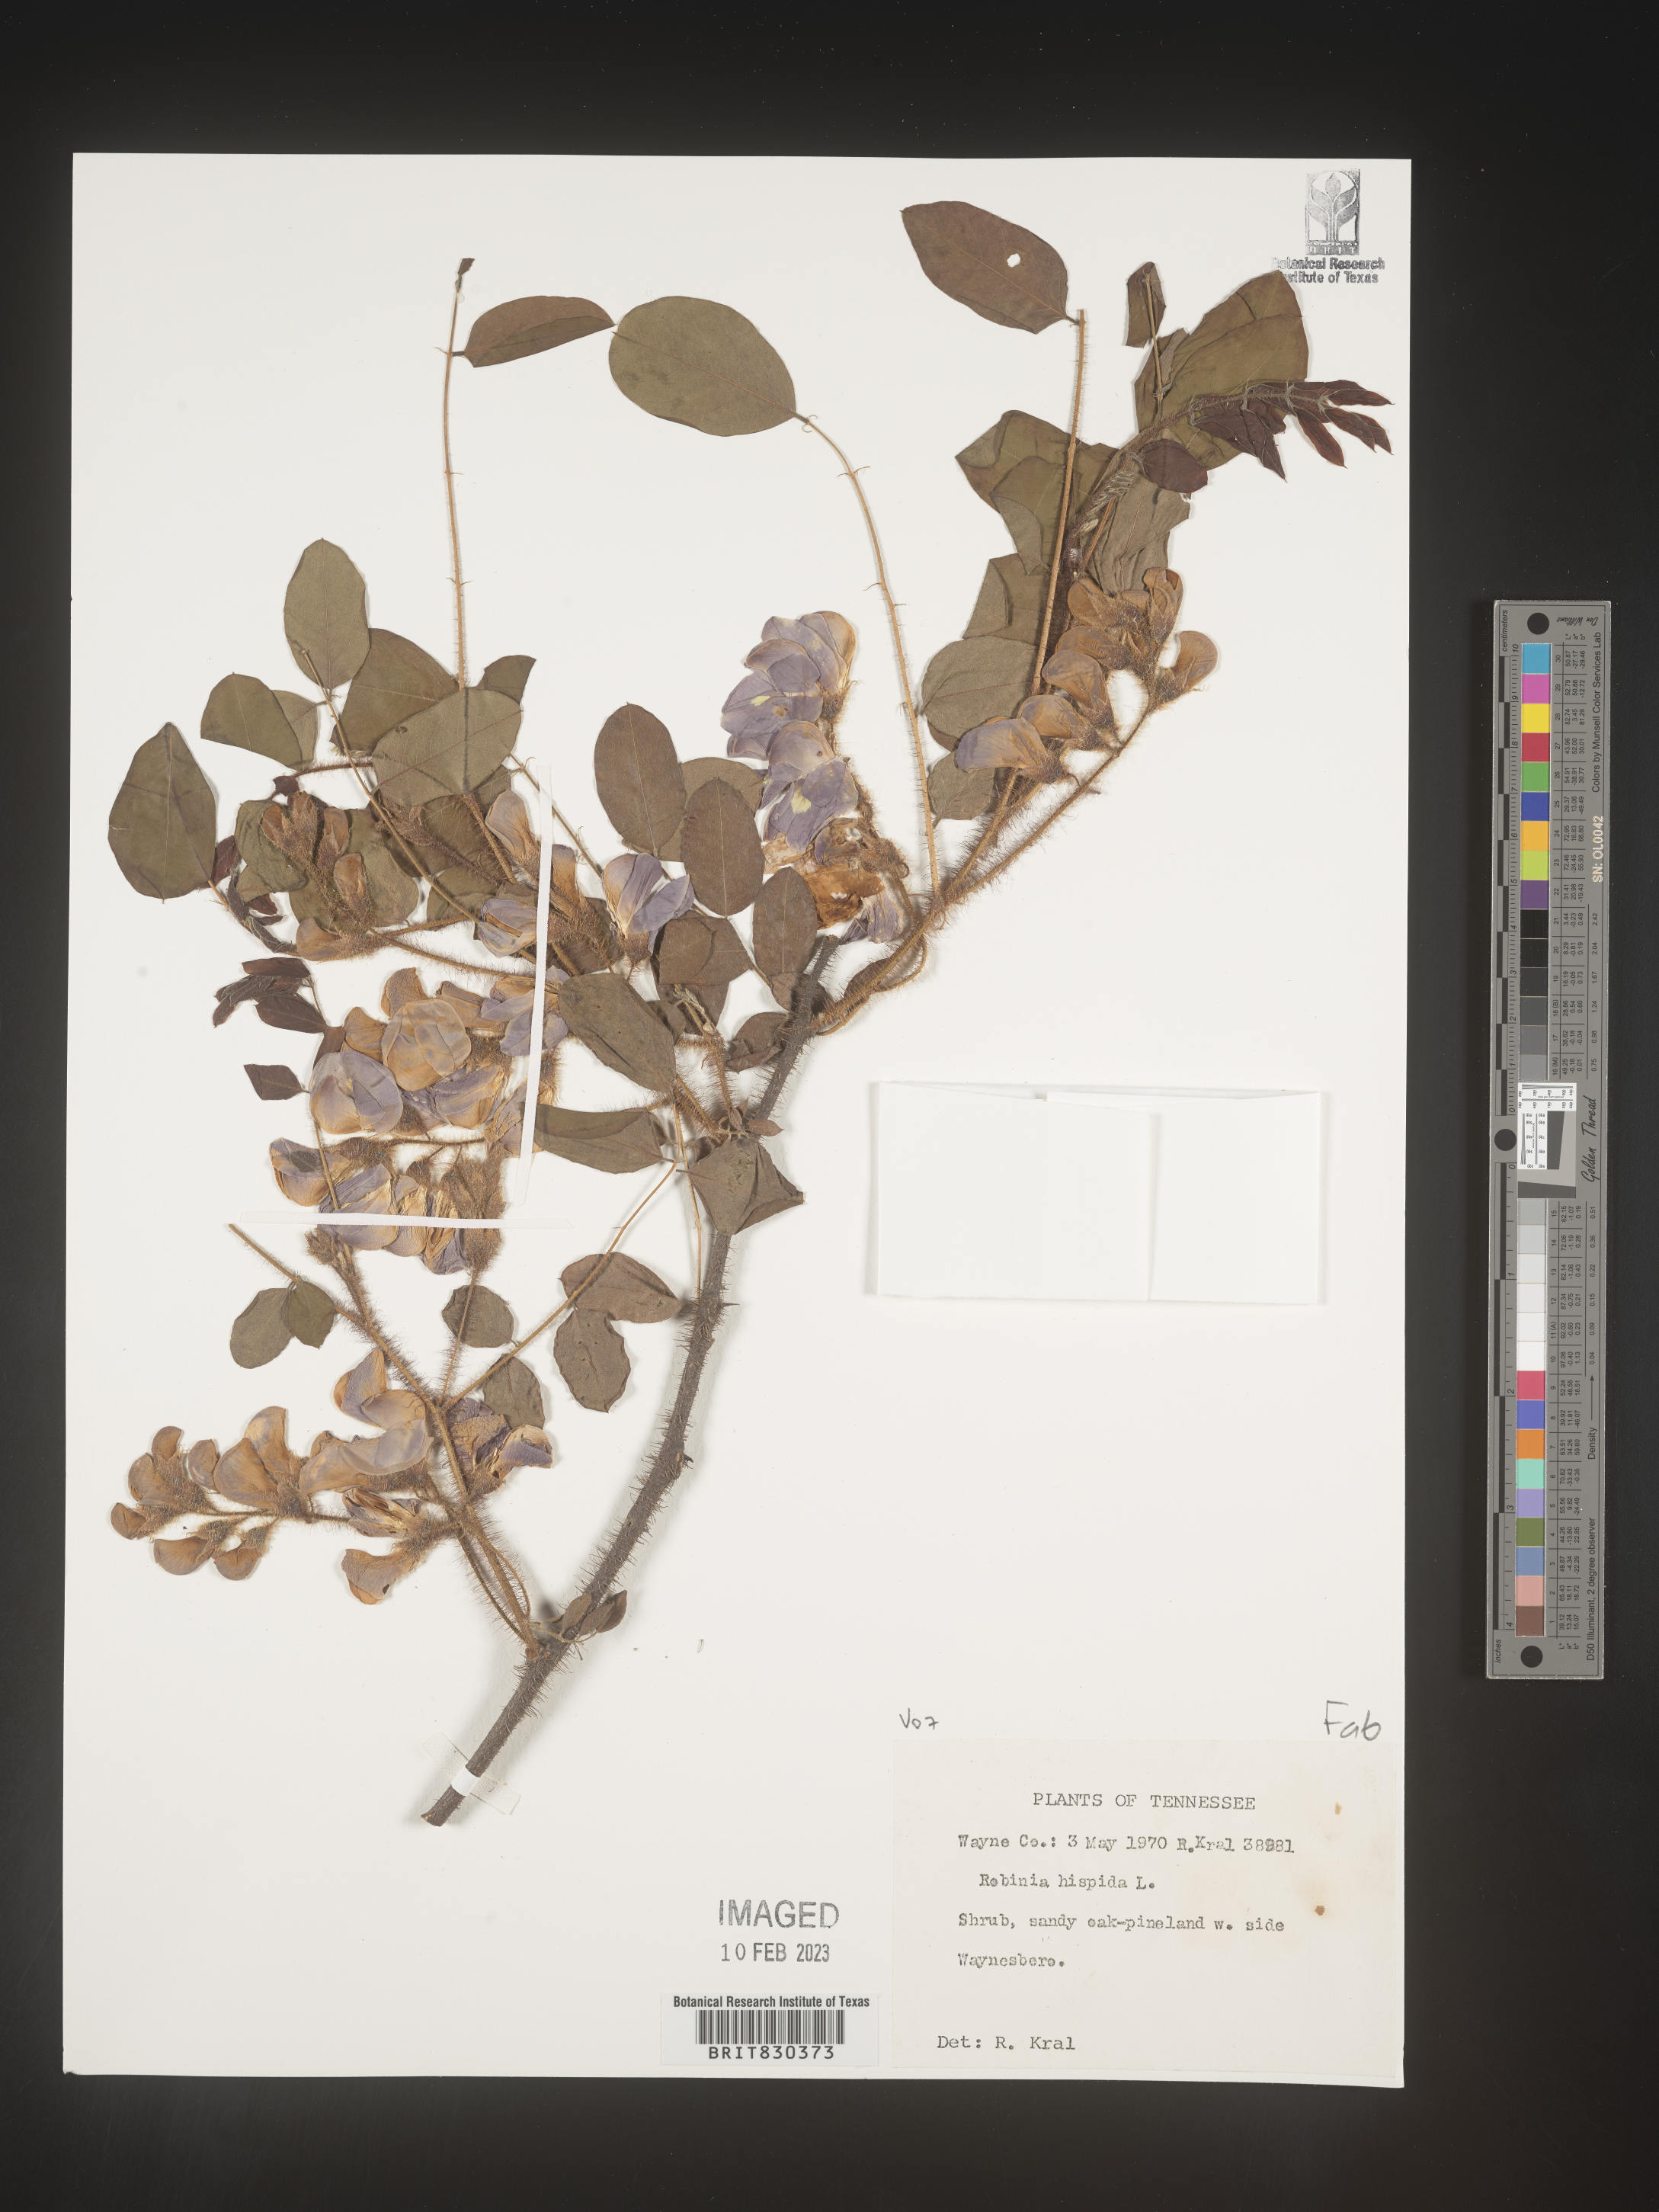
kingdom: Plantae
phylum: Tracheophyta
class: Magnoliopsida
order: Fabales
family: Fabaceae
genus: Robinia
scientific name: Robinia hispida
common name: Bristly locust
